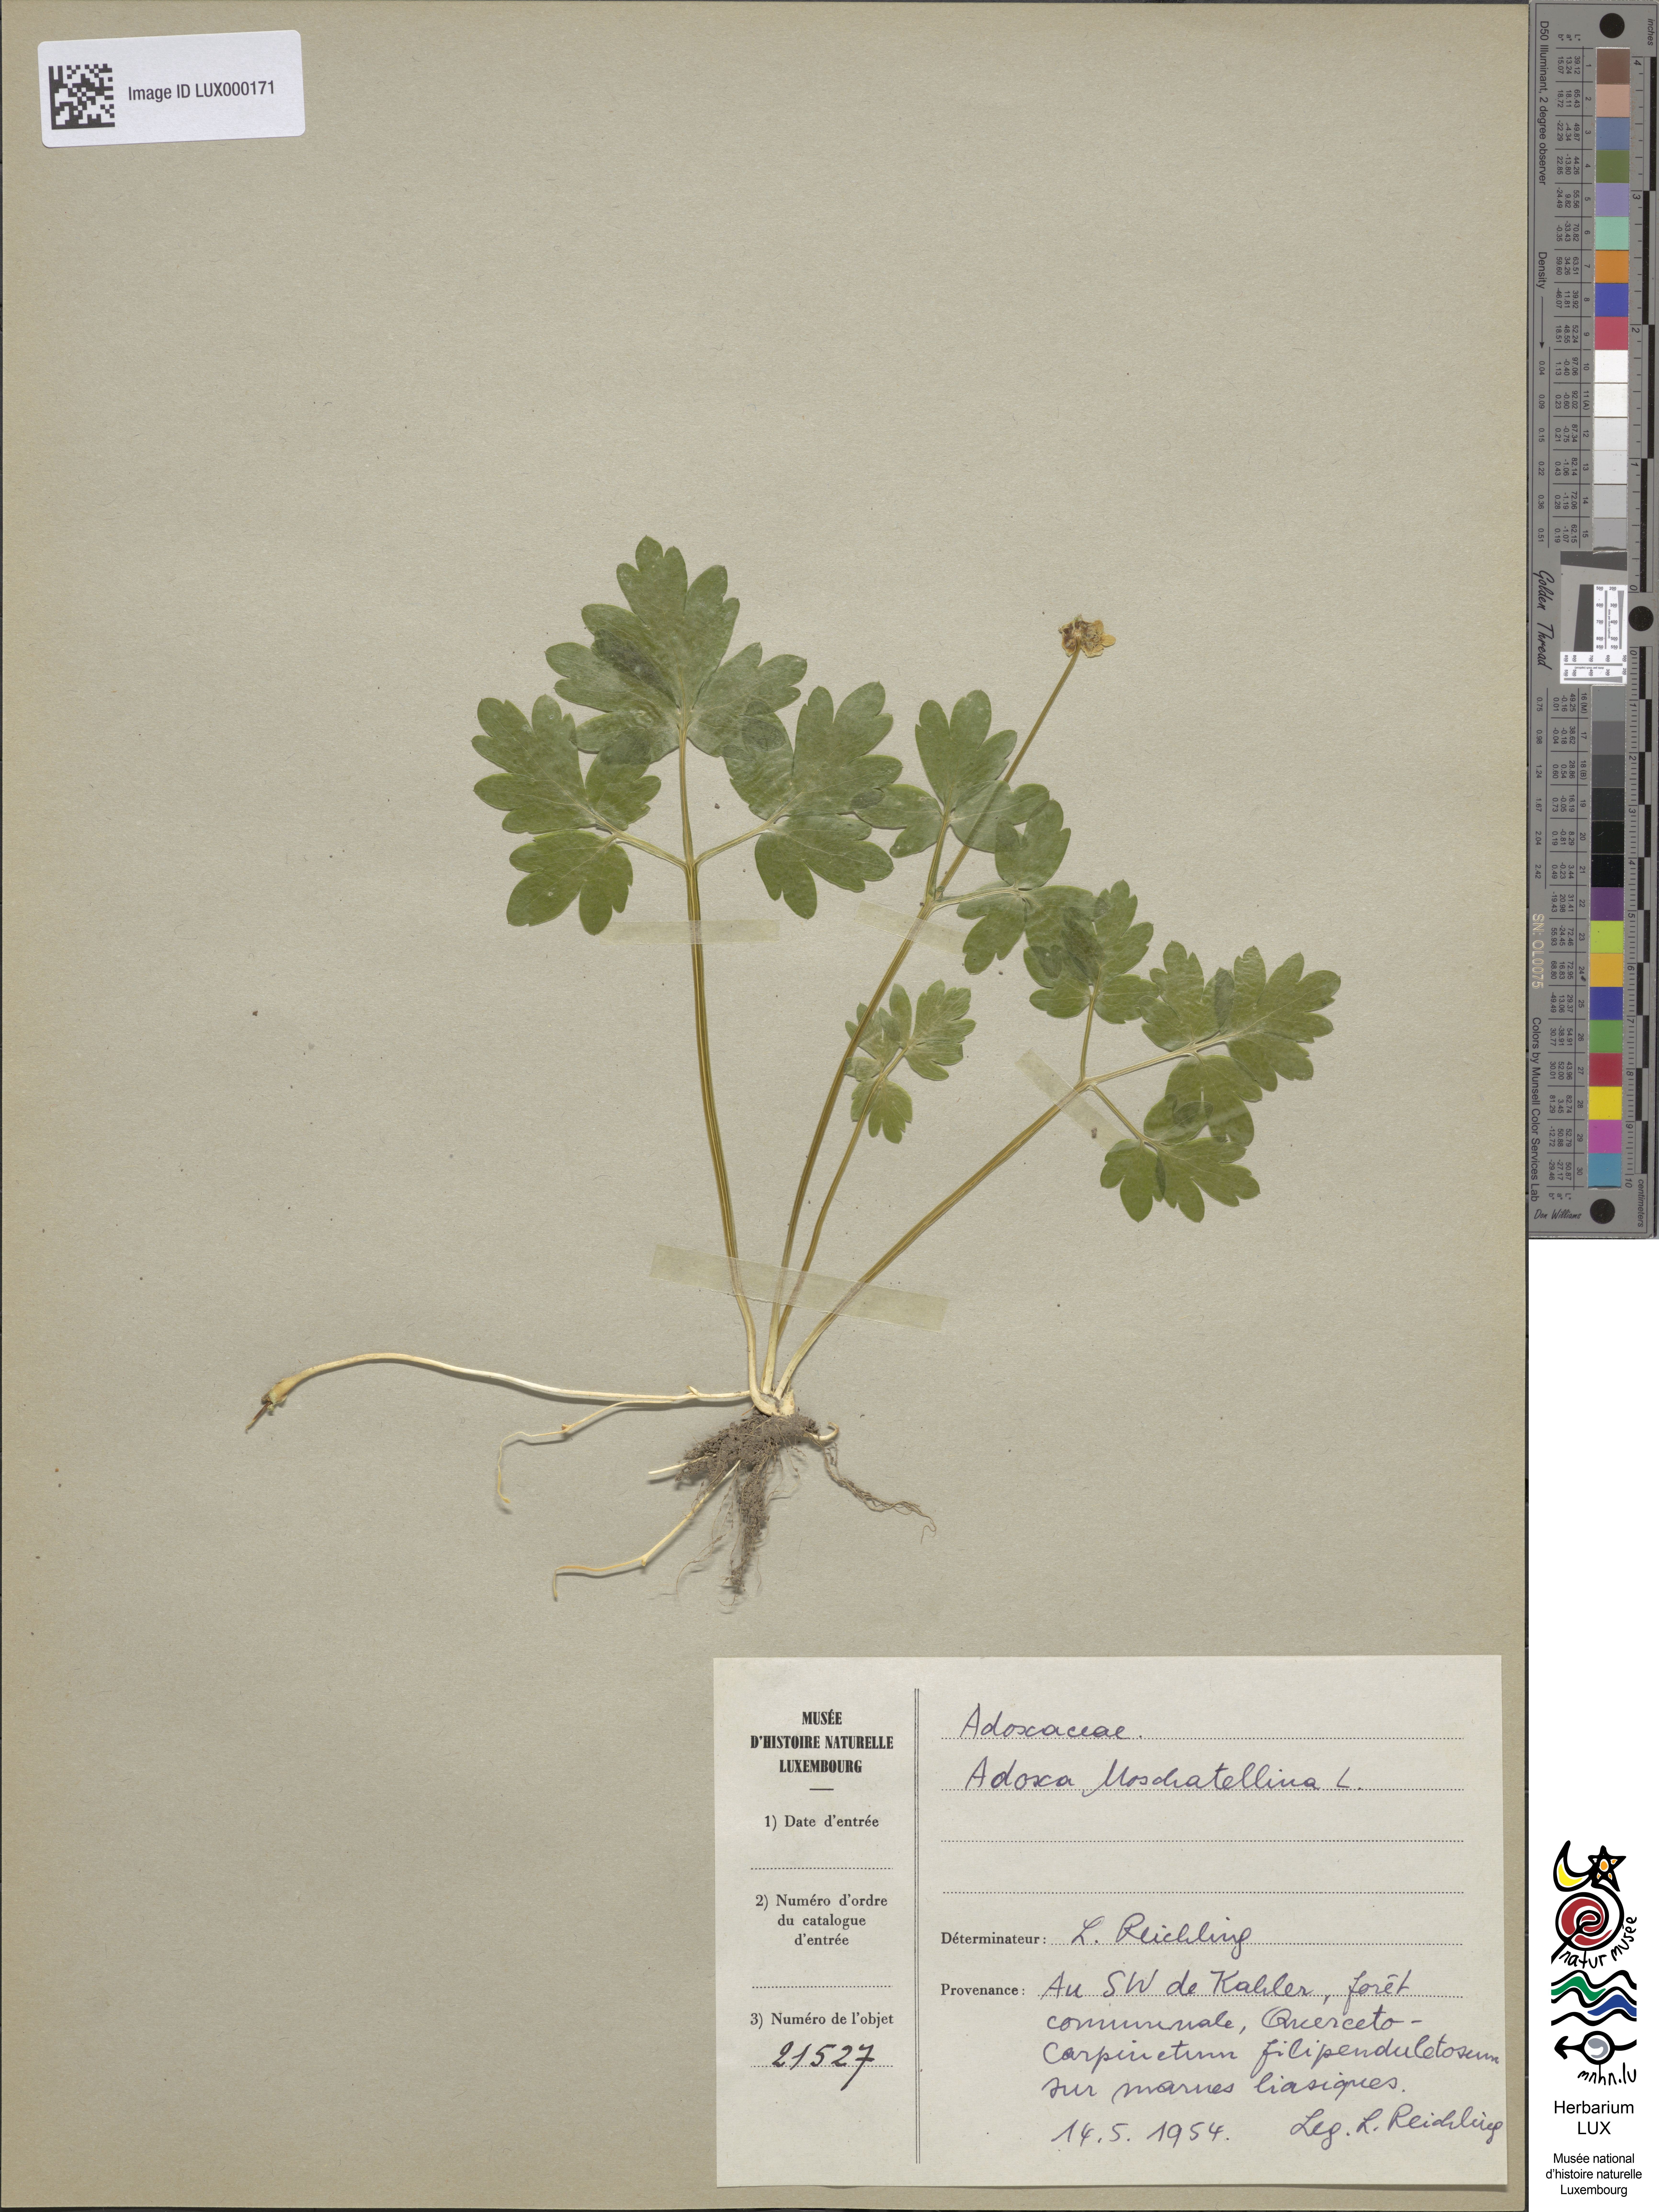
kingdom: Plantae
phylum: Tracheophyta
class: Magnoliopsida
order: Dipsacales
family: Viburnaceae
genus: Adoxa
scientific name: Adoxa moschatellina
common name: Moschatel
